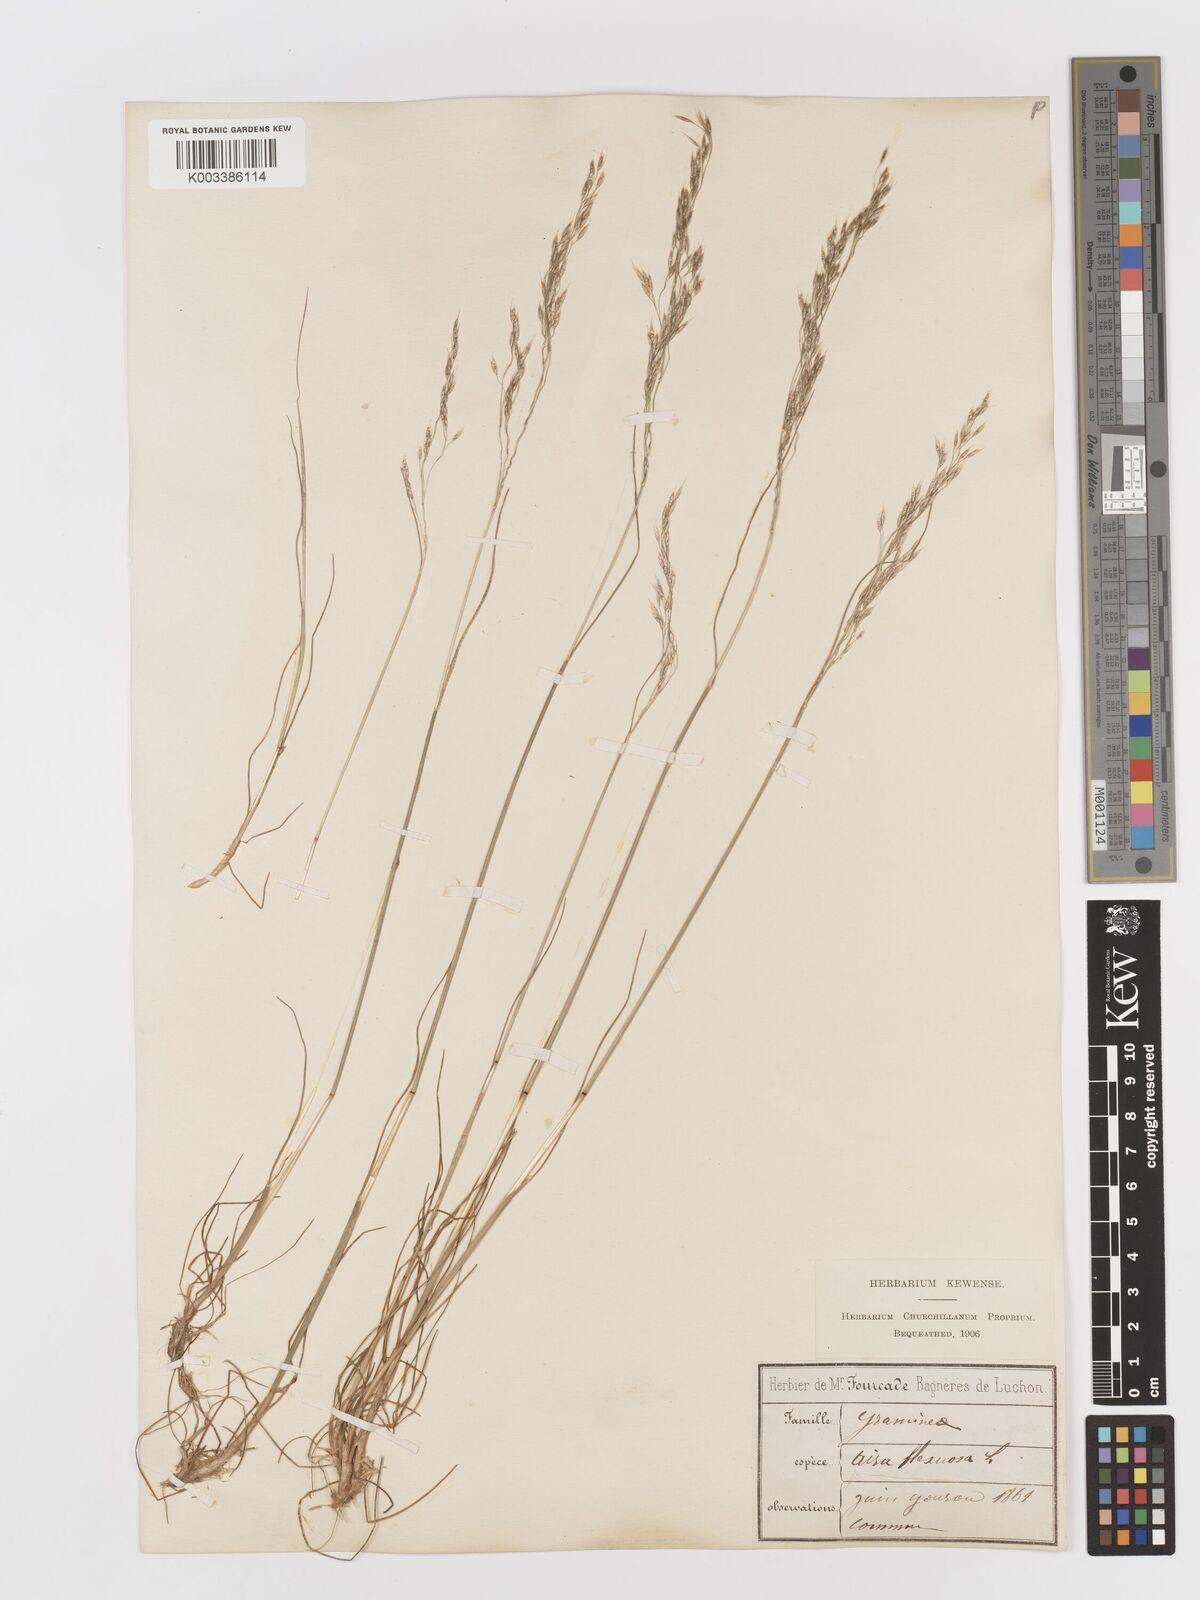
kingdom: Plantae
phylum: Tracheophyta
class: Liliopsida
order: Poales
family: Poaceae
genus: Avenella
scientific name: Avenella flexuosa
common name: Wavy hairgrass
